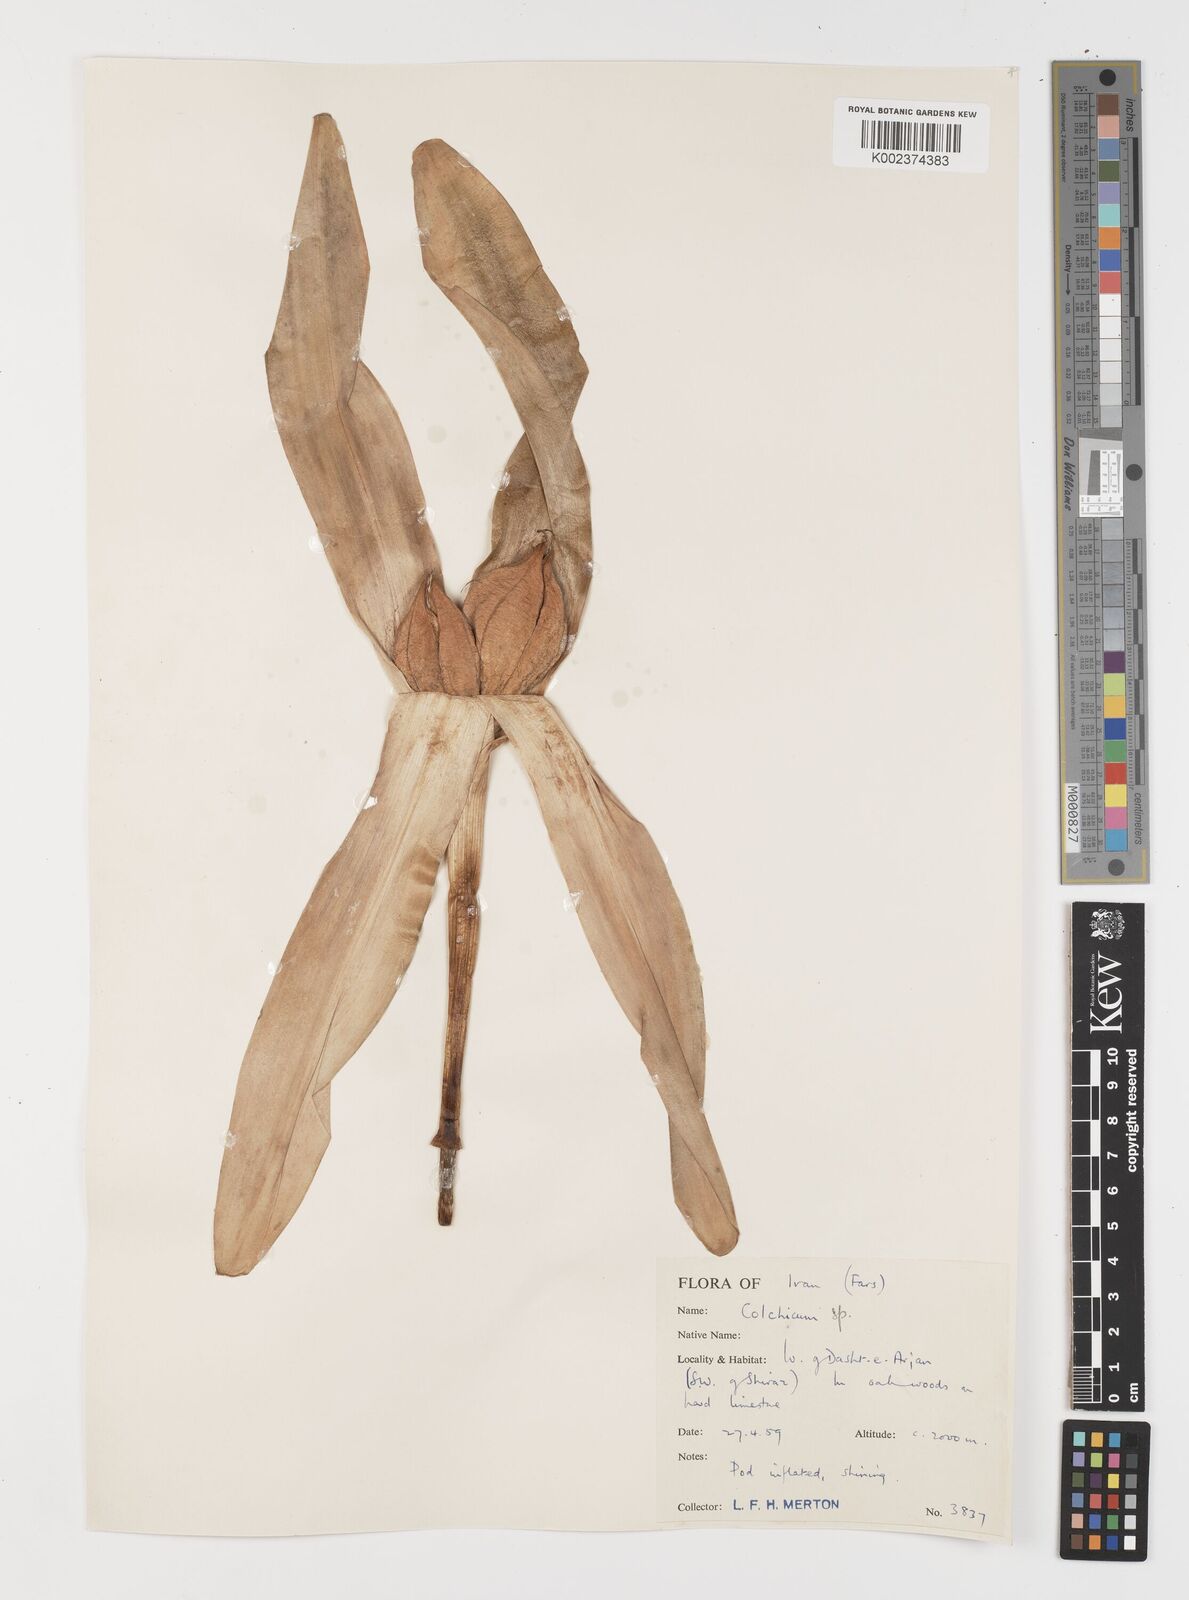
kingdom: Plantae
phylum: Tracheophyta
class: Liliopsida
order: Liliales
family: Colchicaceae
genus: Colchicum
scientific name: Colchicum
